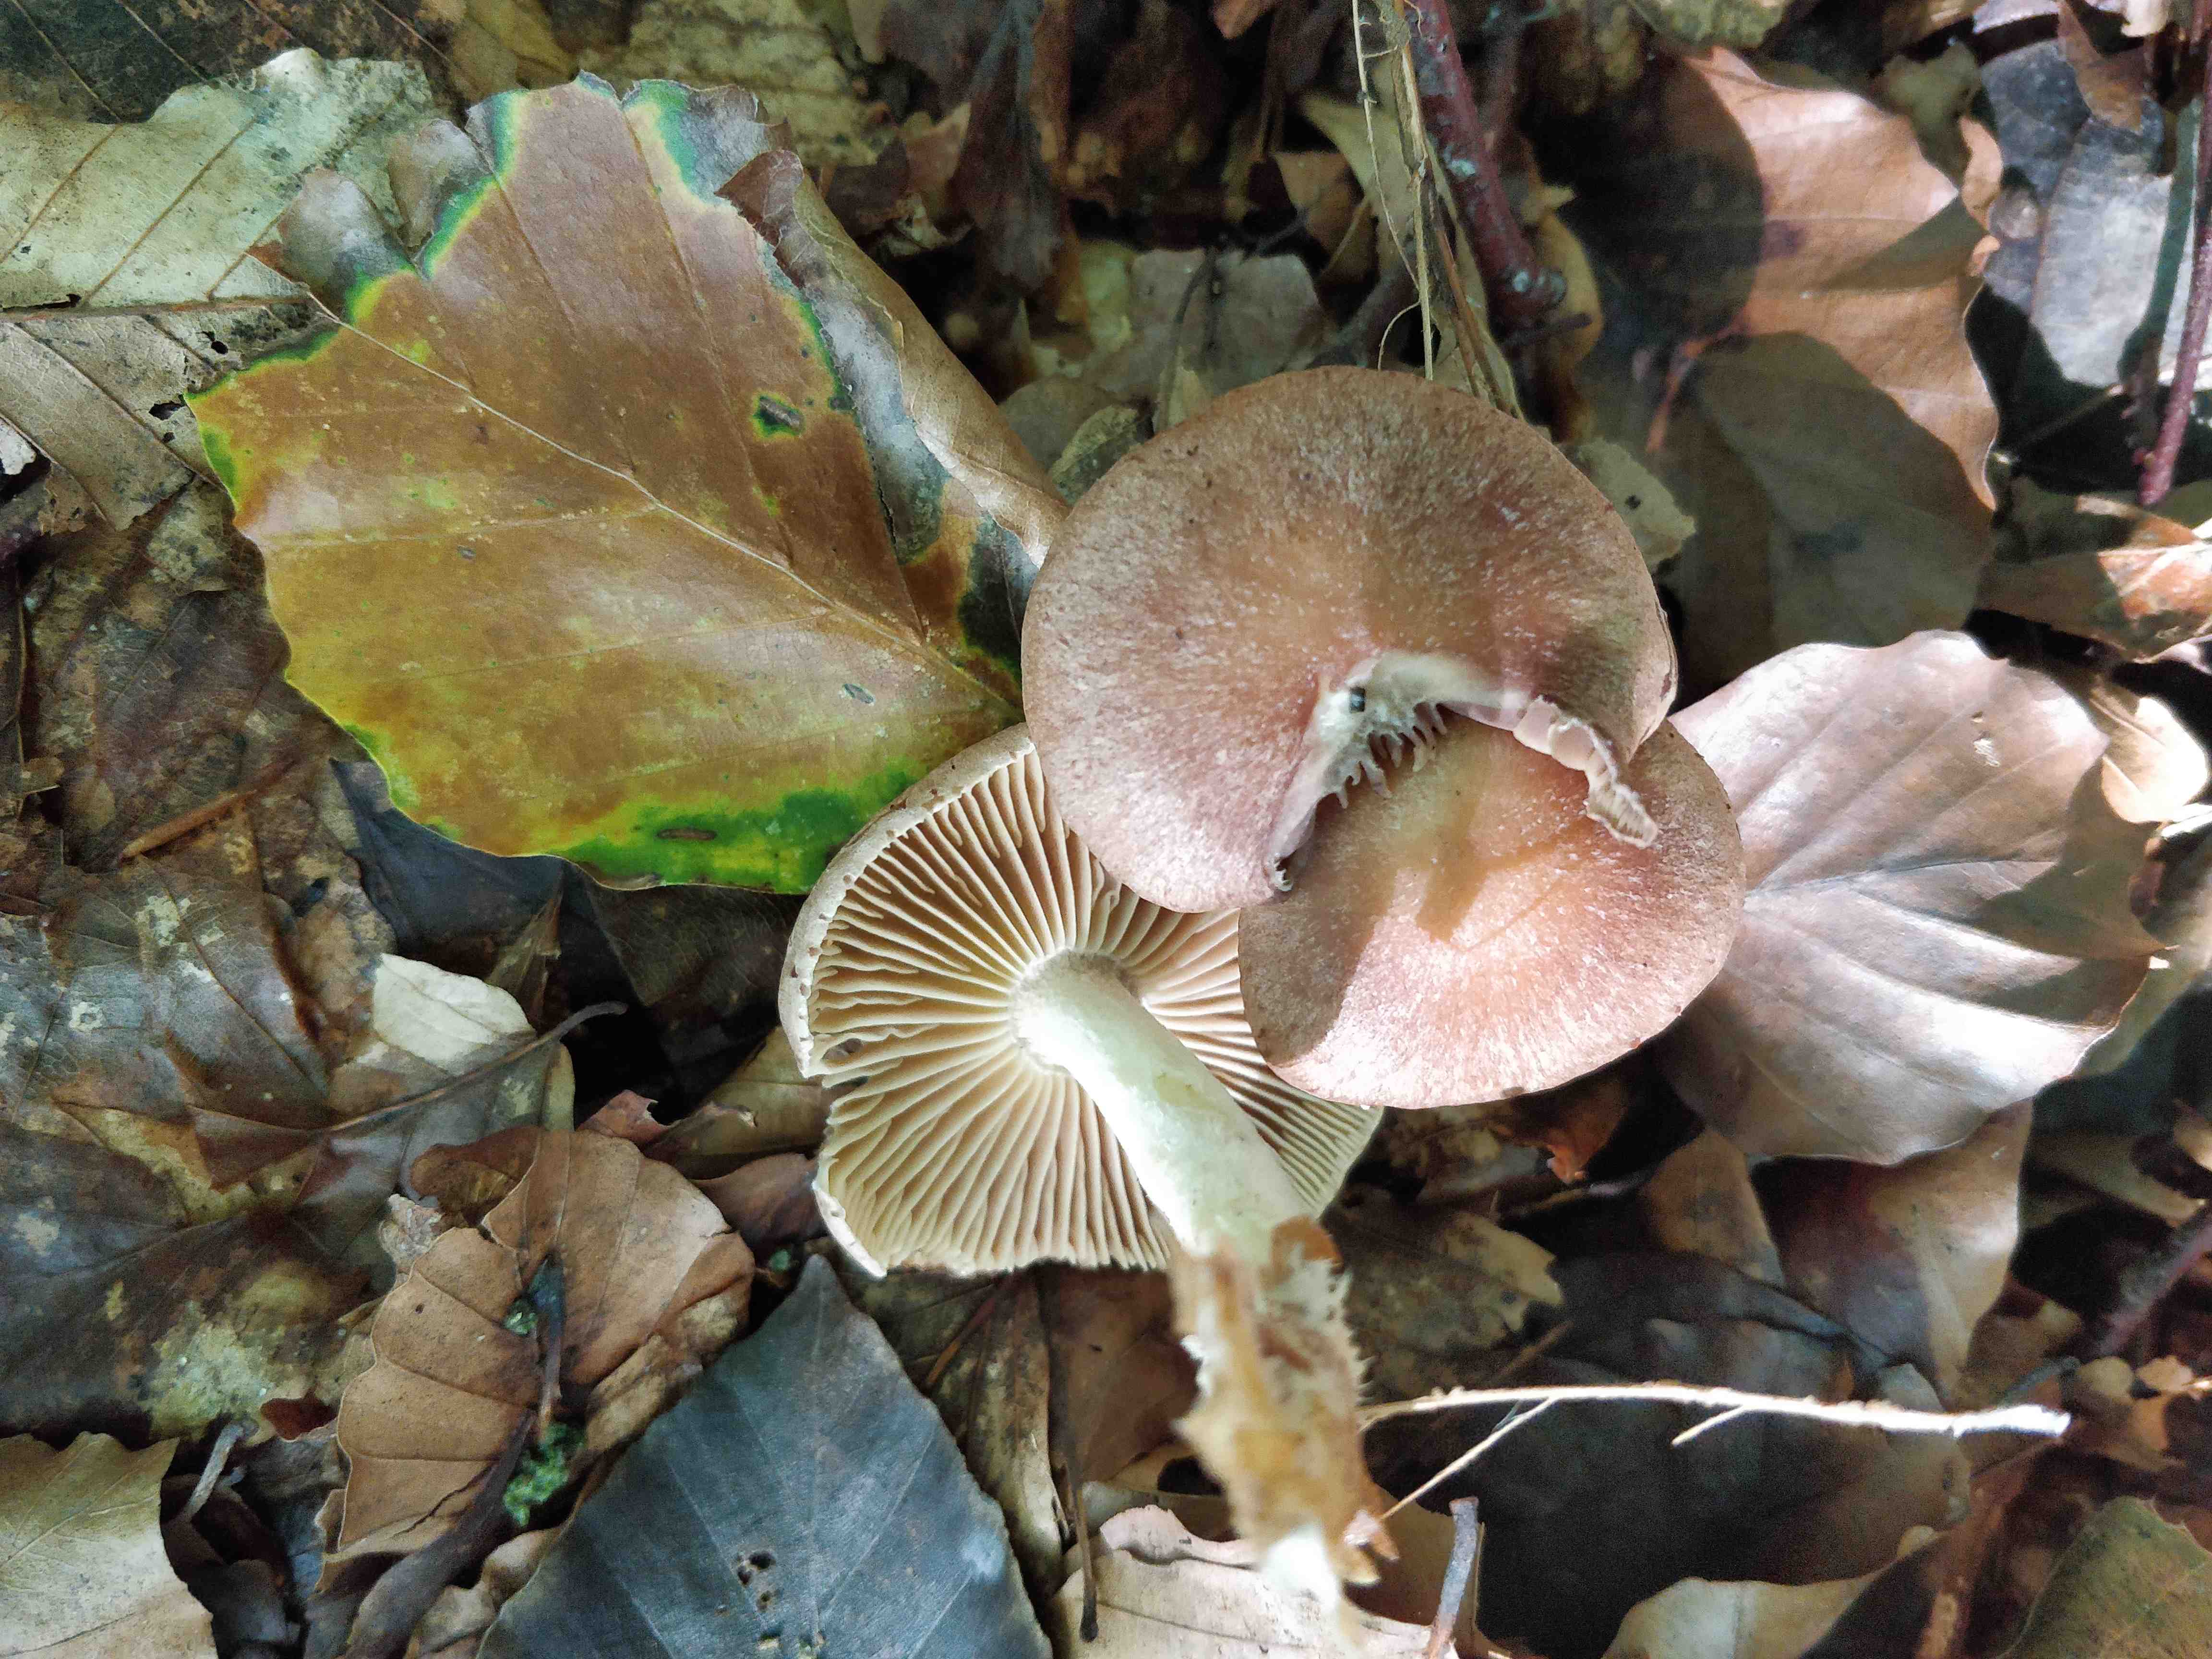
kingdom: Fungi
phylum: Basidiomycota
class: Agaricomycetes
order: Agaricales
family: Omphalotaceae
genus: Collybiopsis
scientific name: Collybiopsis peronata
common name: bestøvlet fladhat
